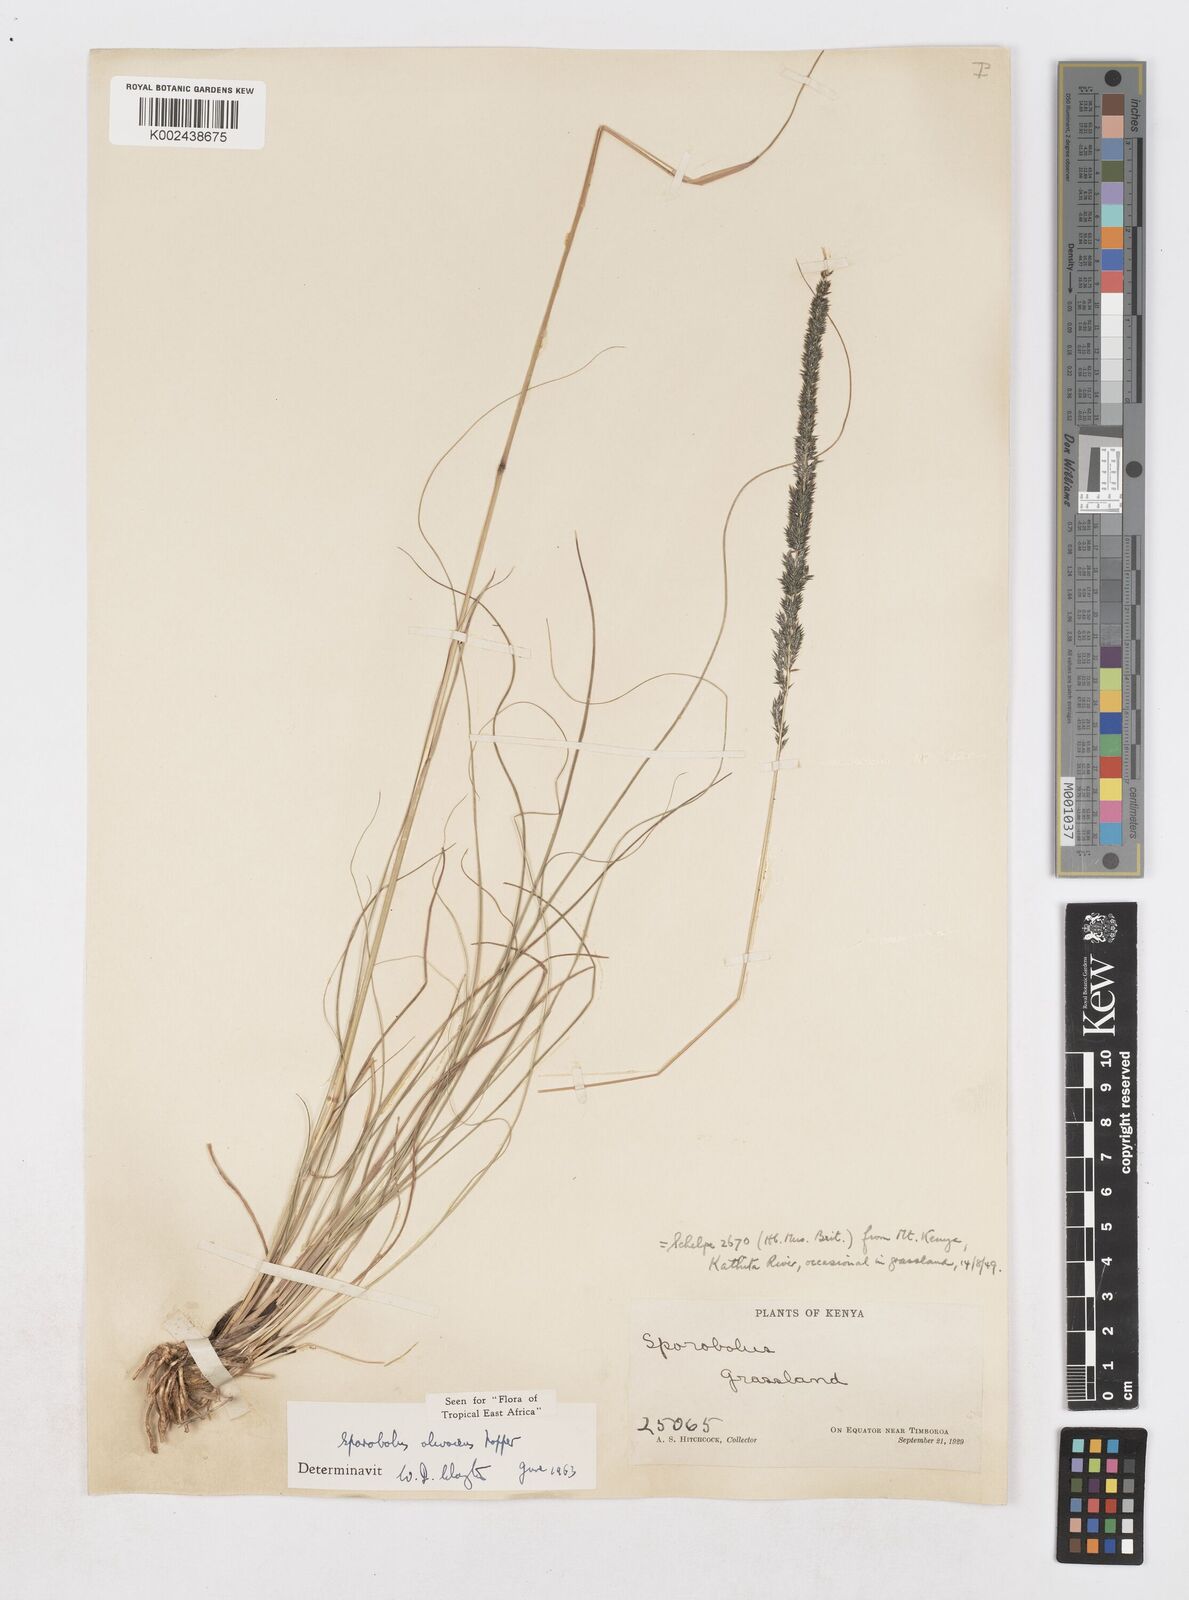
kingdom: Plantae
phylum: Tracheophyta
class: Liliopsida
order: Poales
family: Poaceae
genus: Sporobolus
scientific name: Sporobolus olivaceus
